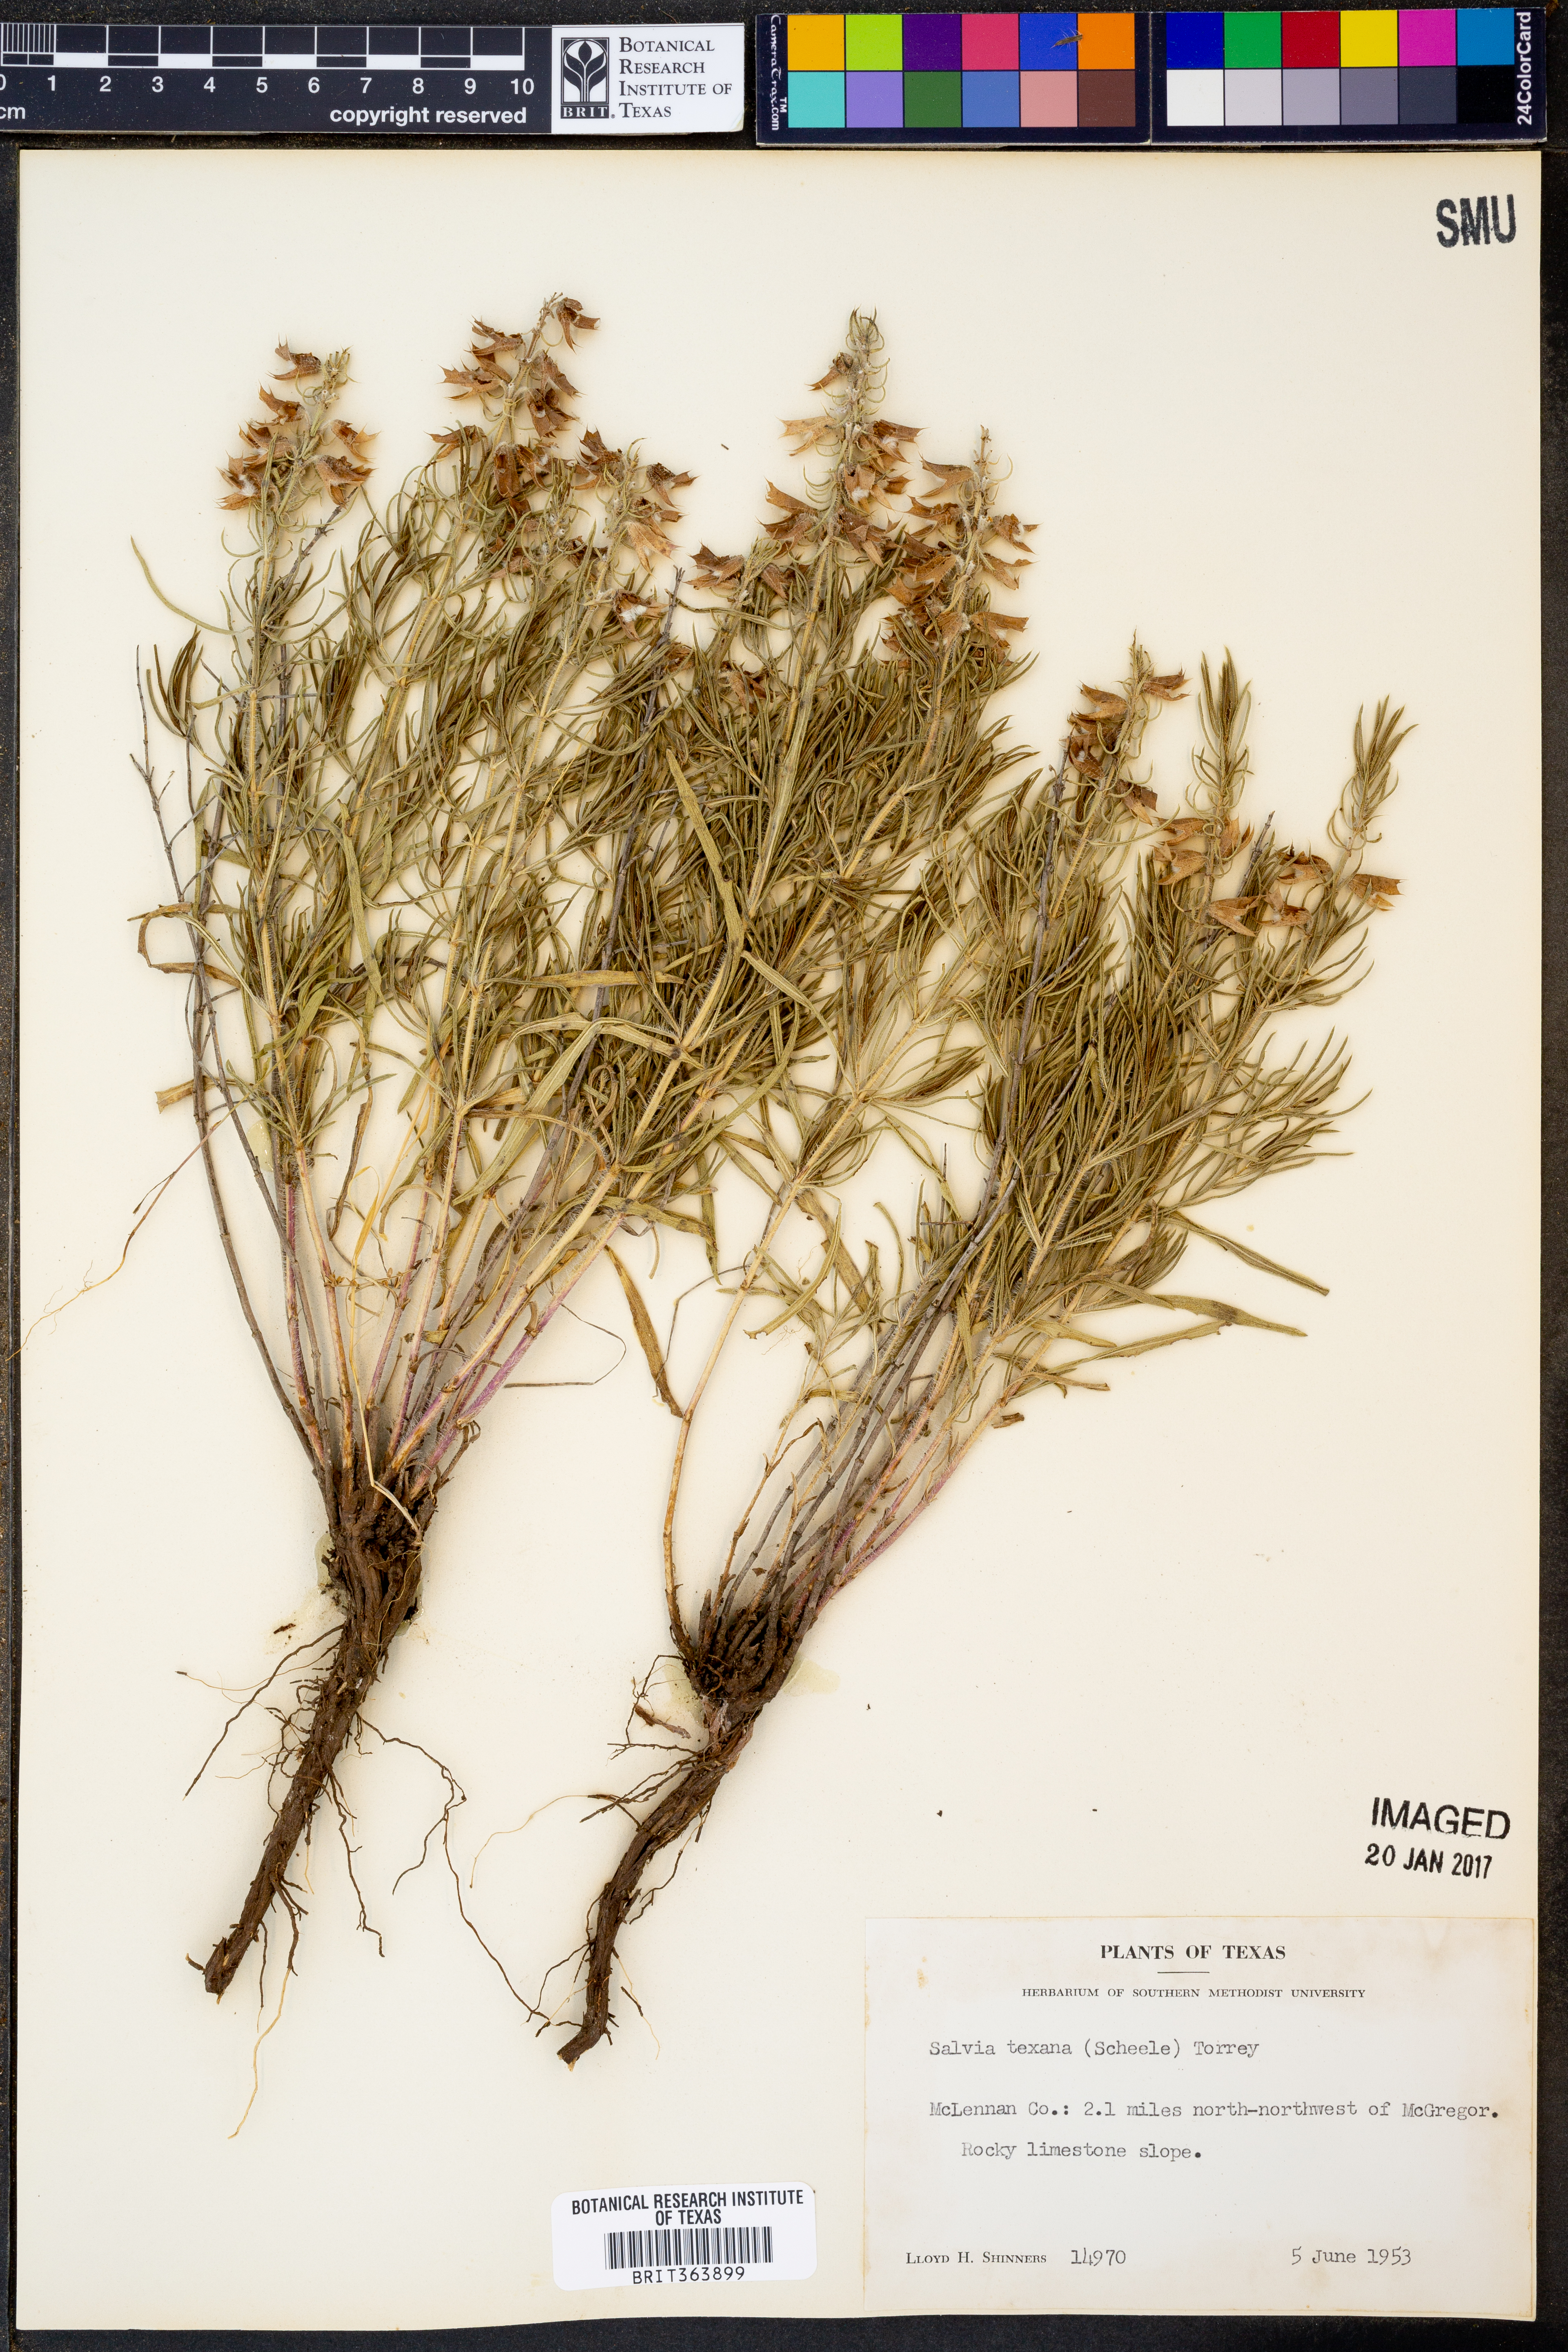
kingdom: Plantae
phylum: Tracheophyta
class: Magnoliopsida
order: Lamiales
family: Lamiaceae
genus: Salvia
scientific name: Salvia texana
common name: Texas sage
